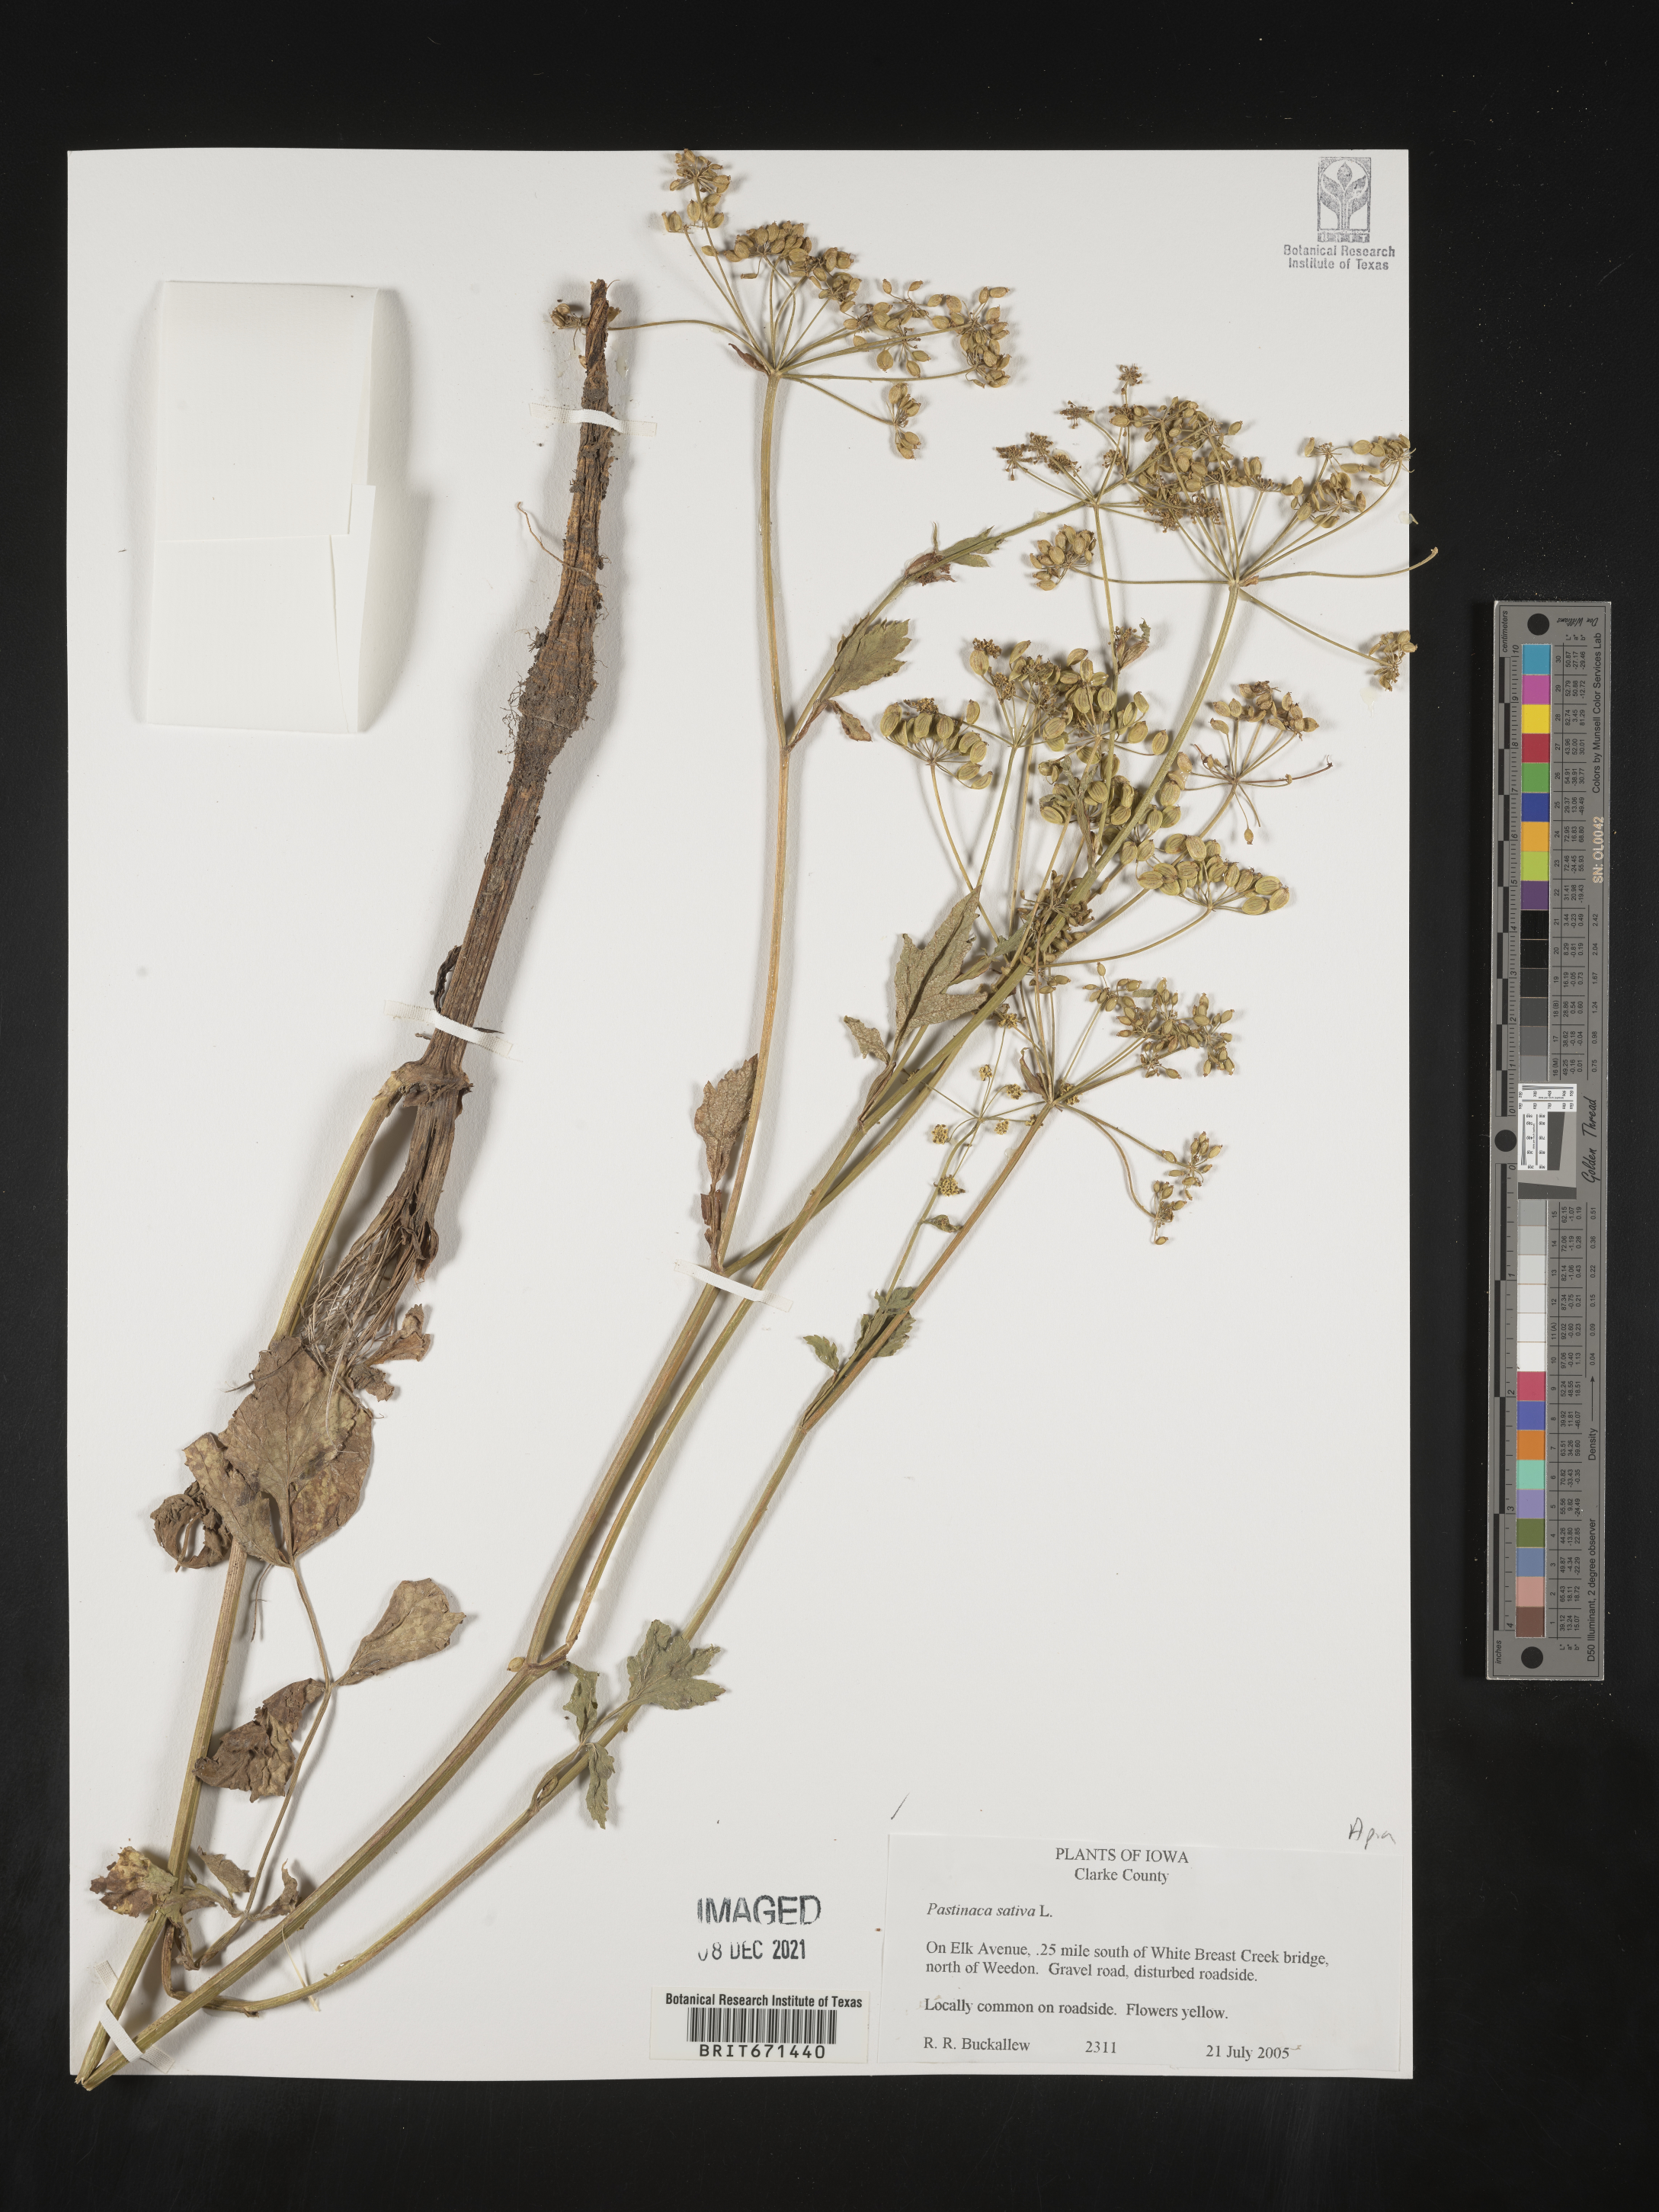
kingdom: Plantae
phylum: Tracheophyta
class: Magnoliopsida
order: Apiales
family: Apiaceae
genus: Pastinaca
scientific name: Pastinaca
